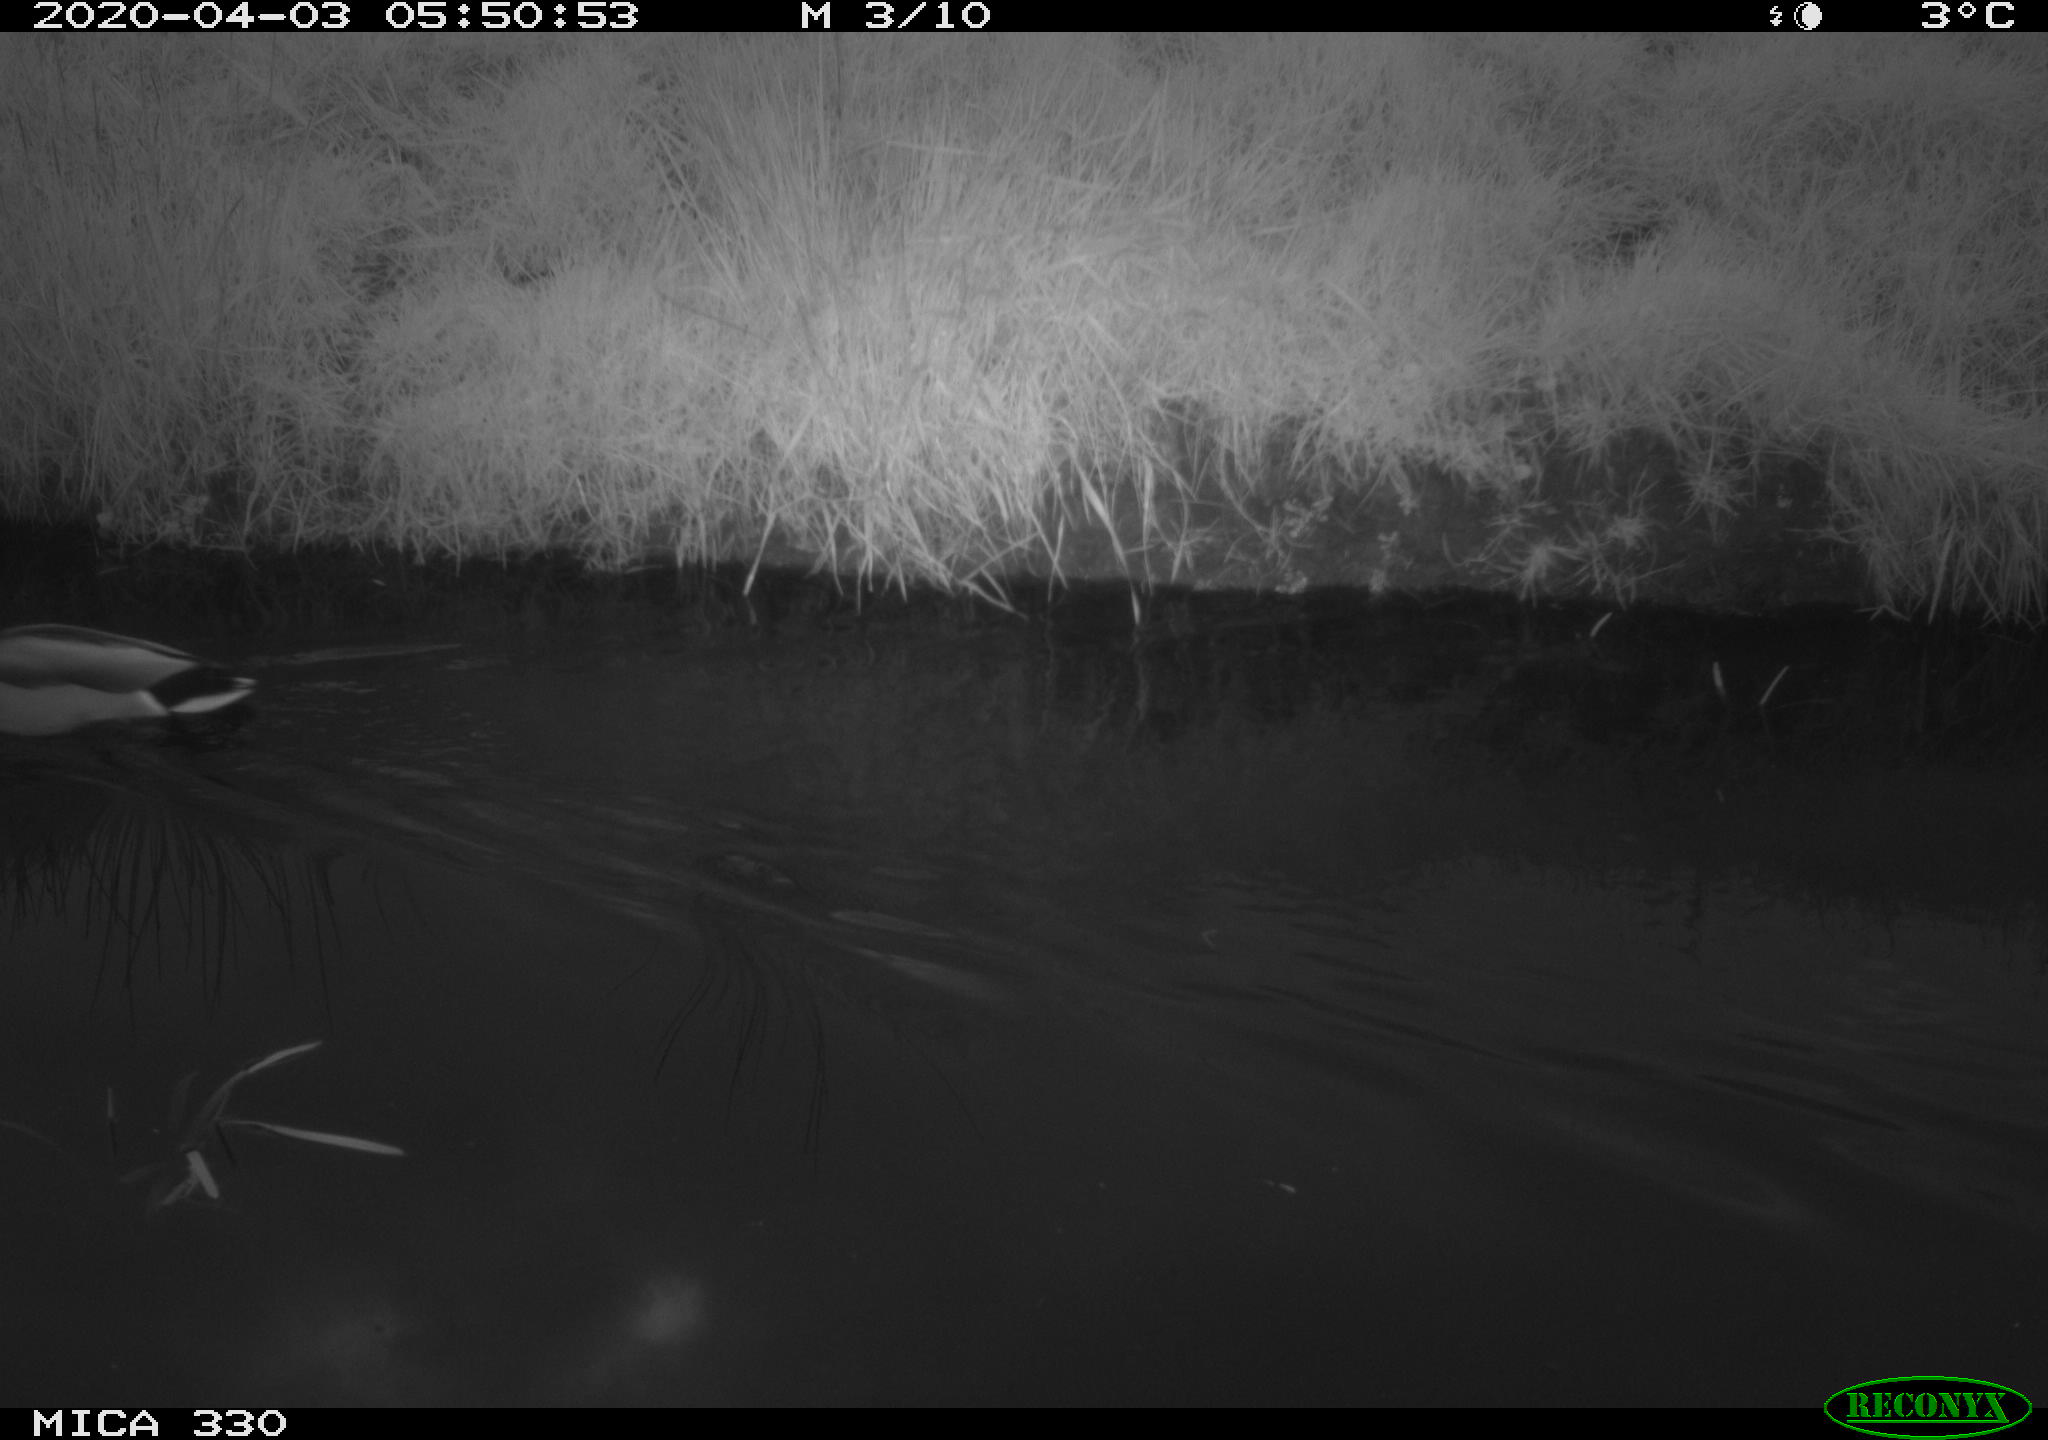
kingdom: Animalia
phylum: Chordata
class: Aves
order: Anseriformes
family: Anatidae
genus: Anas
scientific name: Anas platyrhynchos
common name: Mallard
